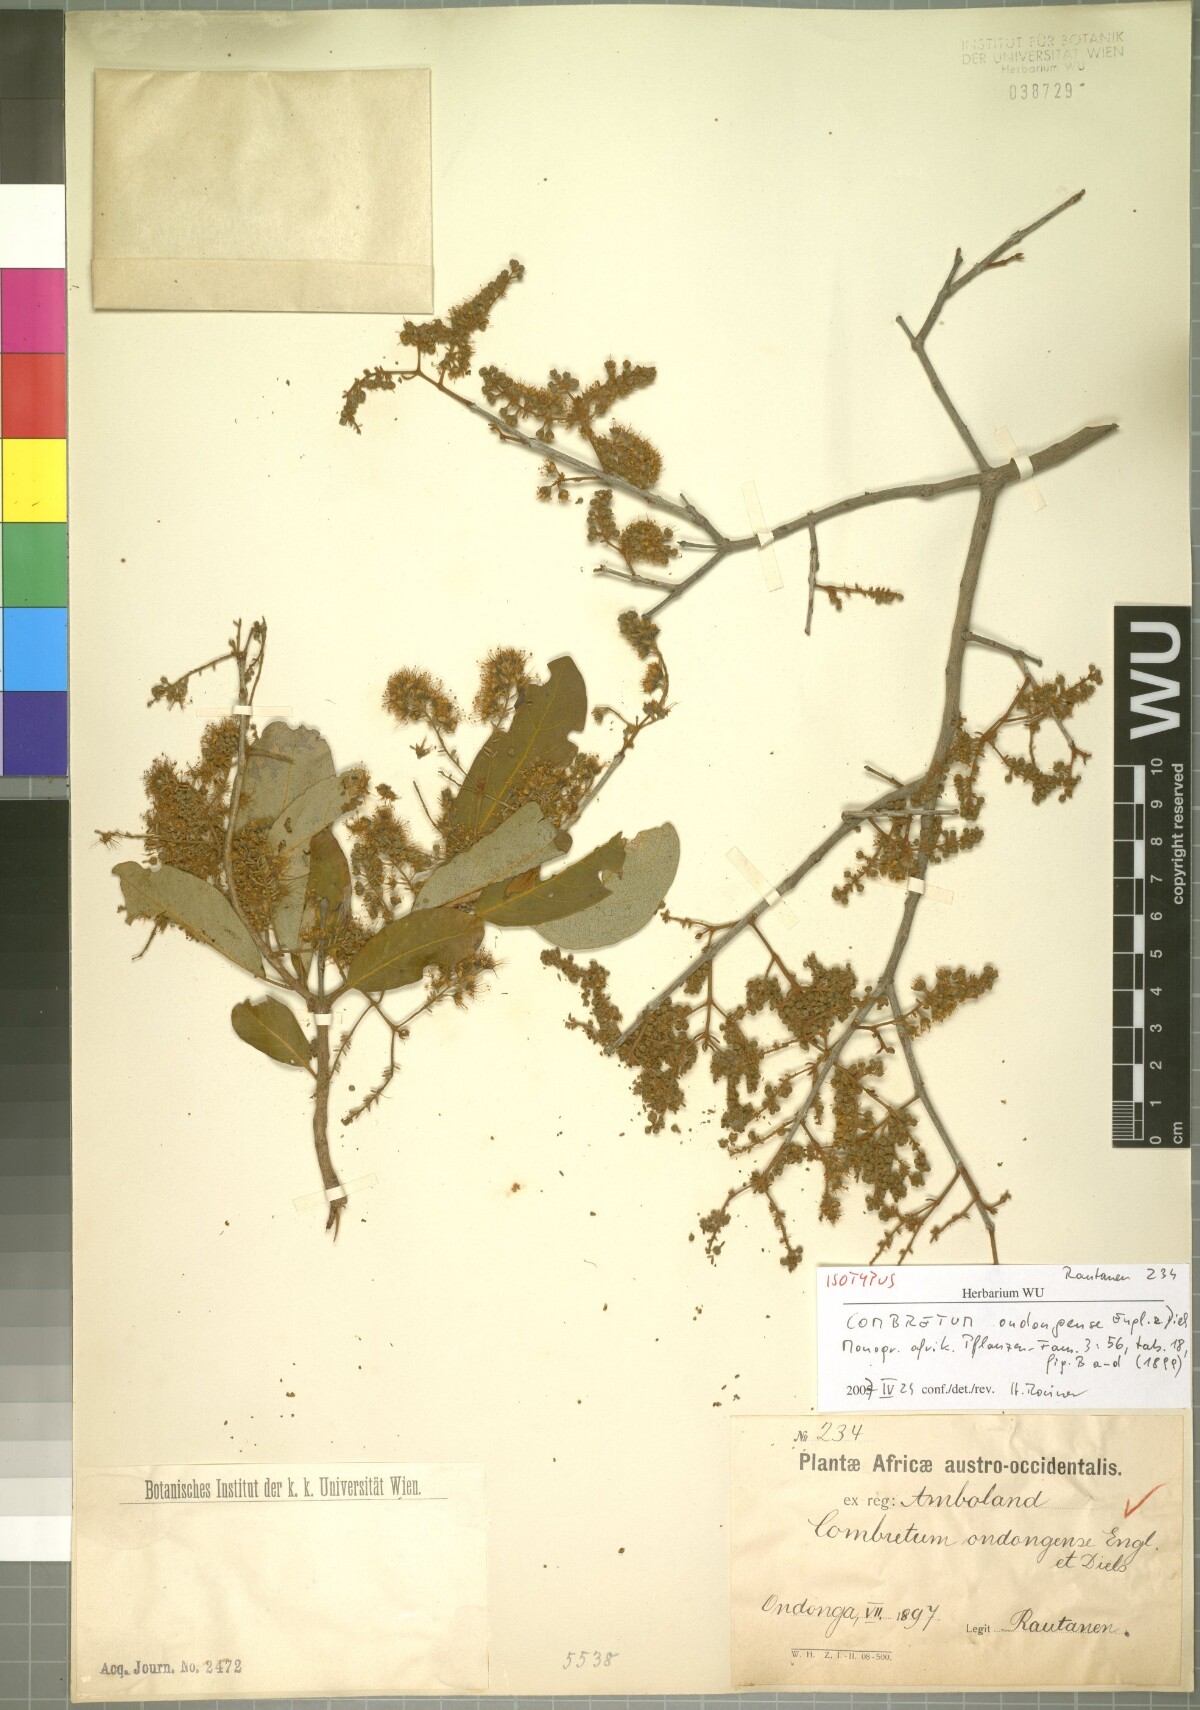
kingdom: Plantae
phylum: Tracheophyta
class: Magnoliopsida
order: Myrtales
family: Combretaceae
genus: Combretum
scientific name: Combretum collinum
